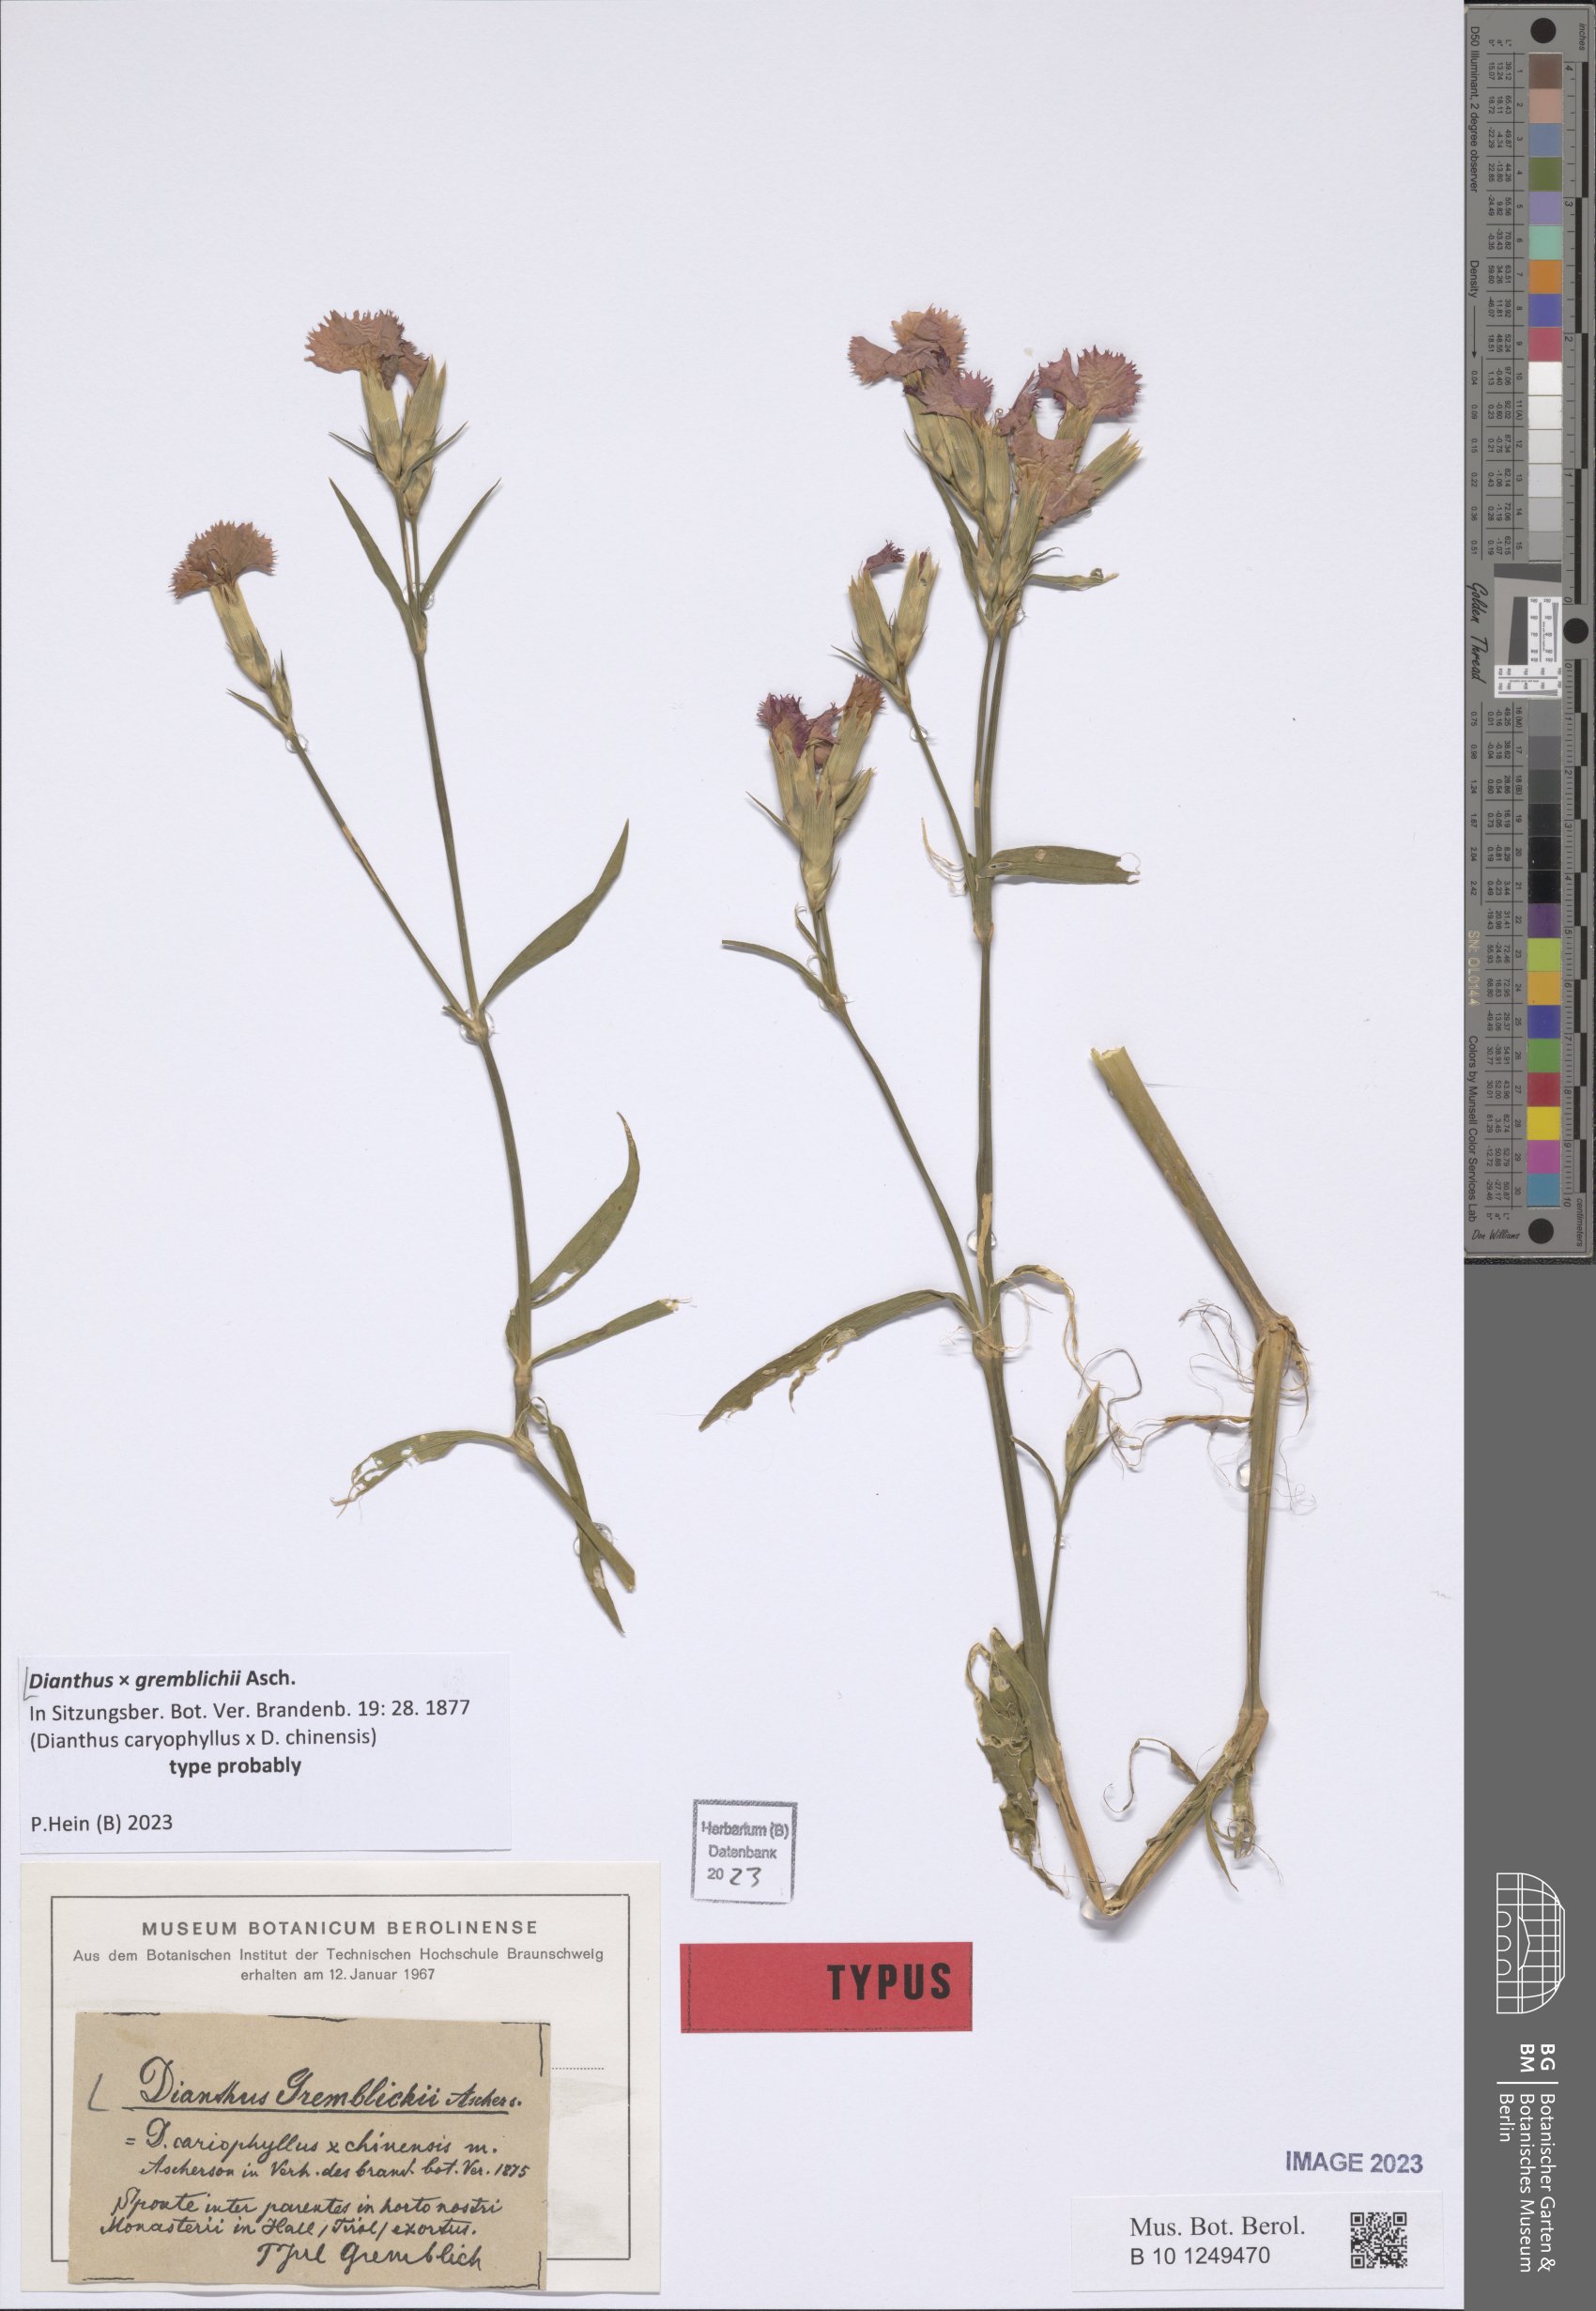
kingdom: Plantae
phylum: Tracheophyta
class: Magnoliopsida
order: Caryophyllales
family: Caryophyllaceae
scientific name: Caryophyllaceae
